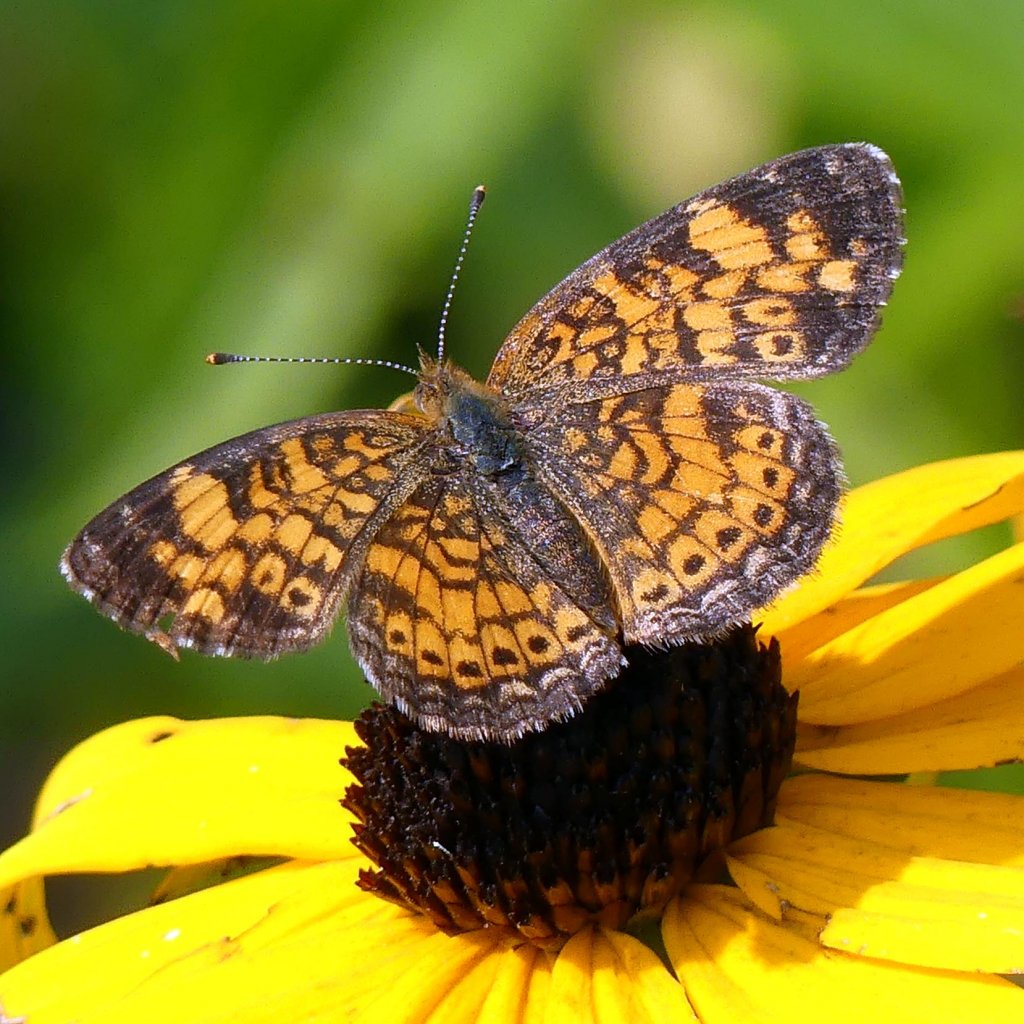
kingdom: Animalia
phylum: Arthropoda
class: Insecta
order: Lepidoptera
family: Nymphalidae
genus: Phyciodes
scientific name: Phyciodes tharos
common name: Northern Crescent
